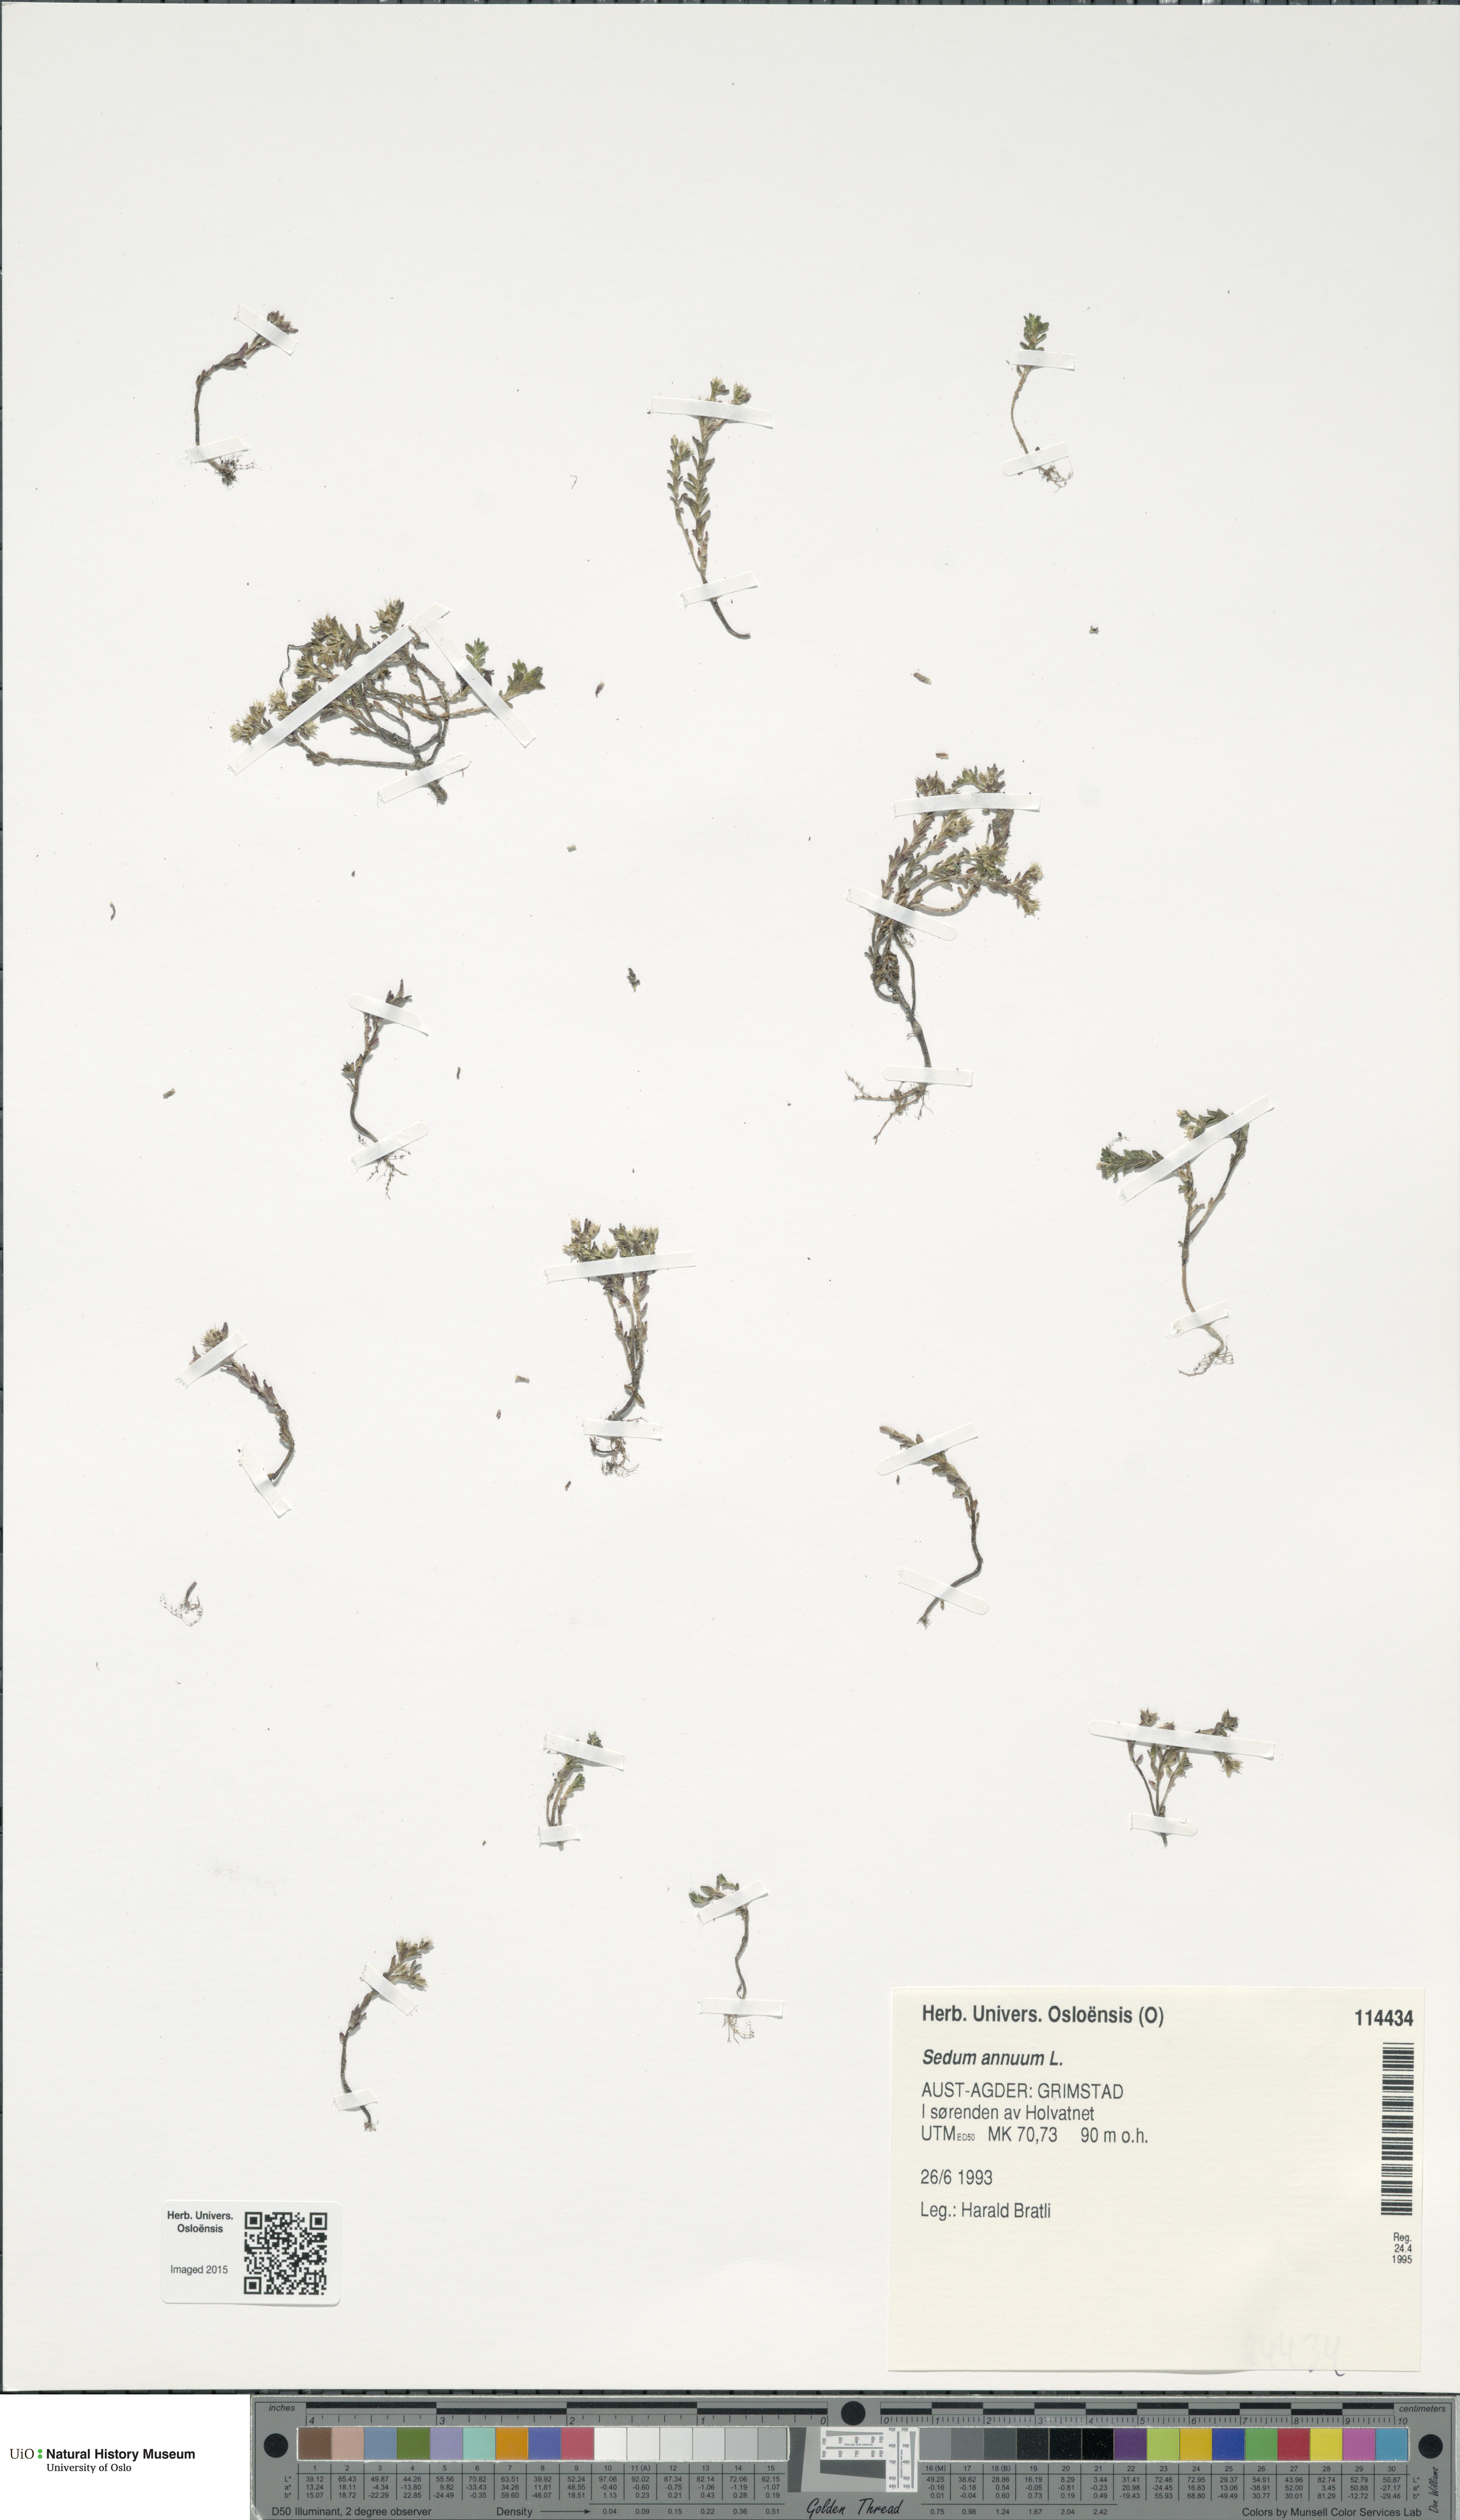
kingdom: Plantae
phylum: Tracheophyta
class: Magnoliopsida
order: Saxifragales
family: Crassulaceae
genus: Sedum
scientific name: Sedum annuum
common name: Annual stonecrop
